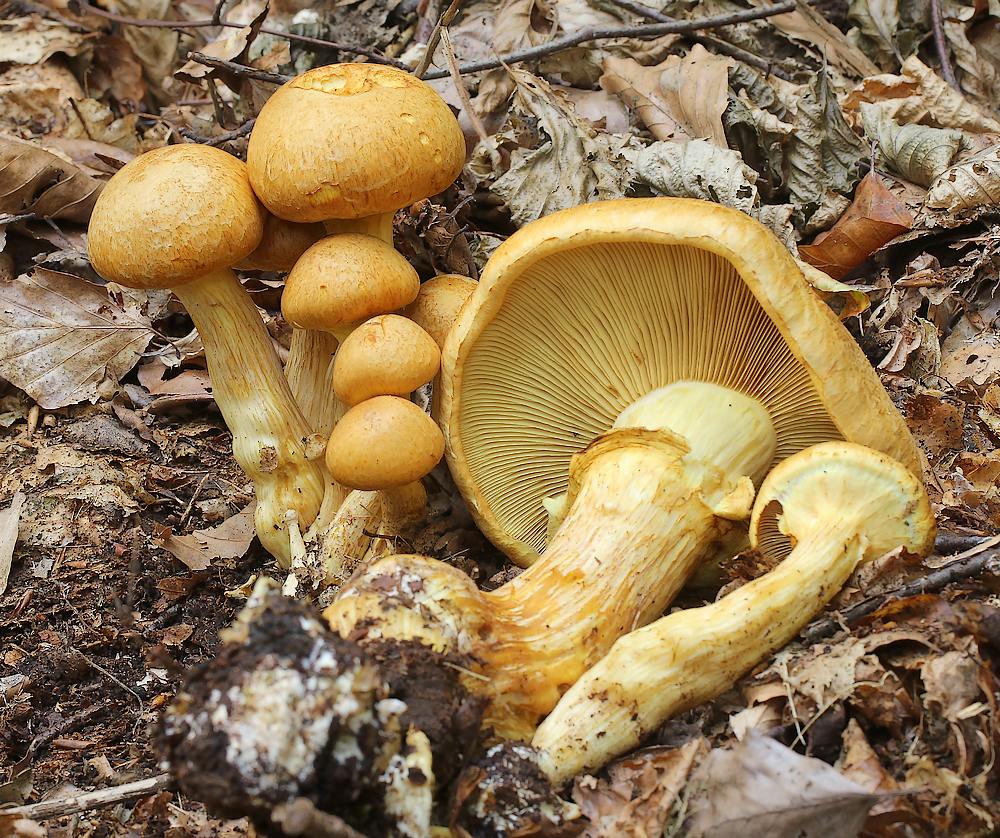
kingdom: Fungi
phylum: Basidiomycota
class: Agaricomycetes
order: Agaricales
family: Hymenogastraceae
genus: Gymnopilus
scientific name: Gymnopilus spectabilis
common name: fibret flammehat
